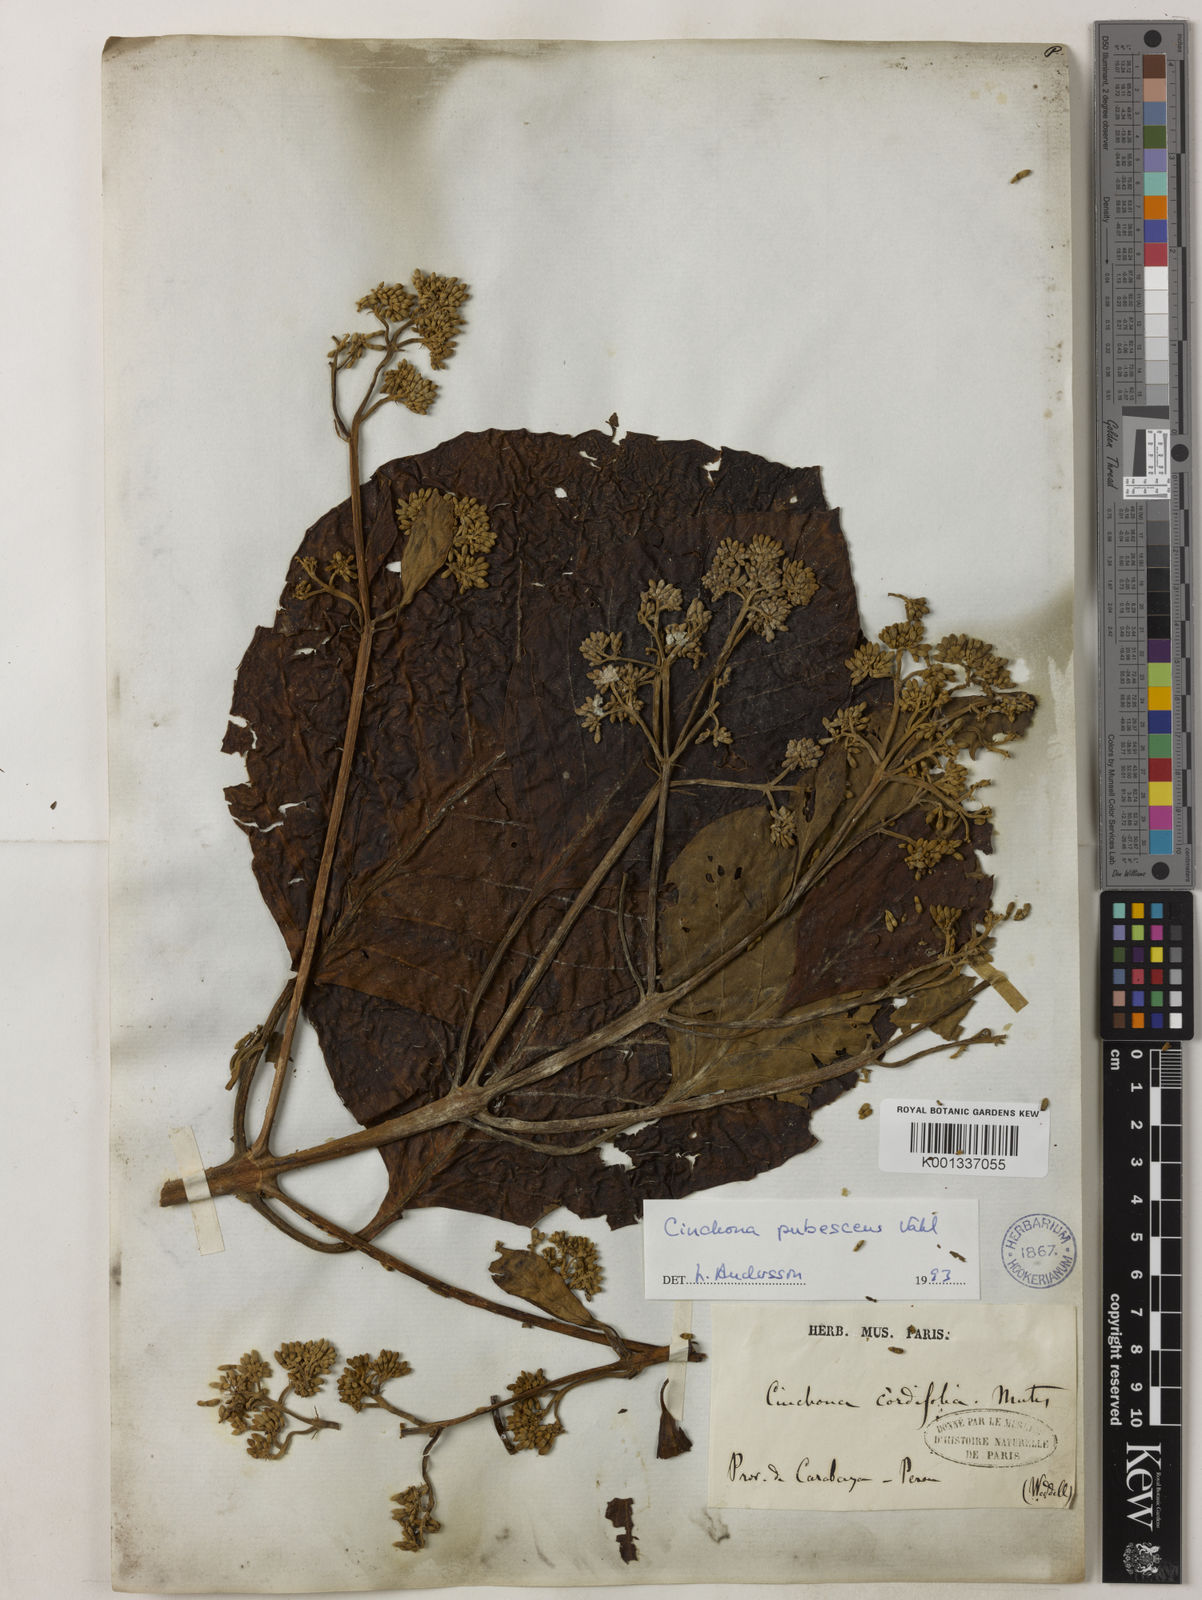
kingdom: Plantae
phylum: Tracheophyta
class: Magnoliopsida
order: Gentianales
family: Rubiaceae
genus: Cinchona
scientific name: Cinchona pubescens
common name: Quinine
